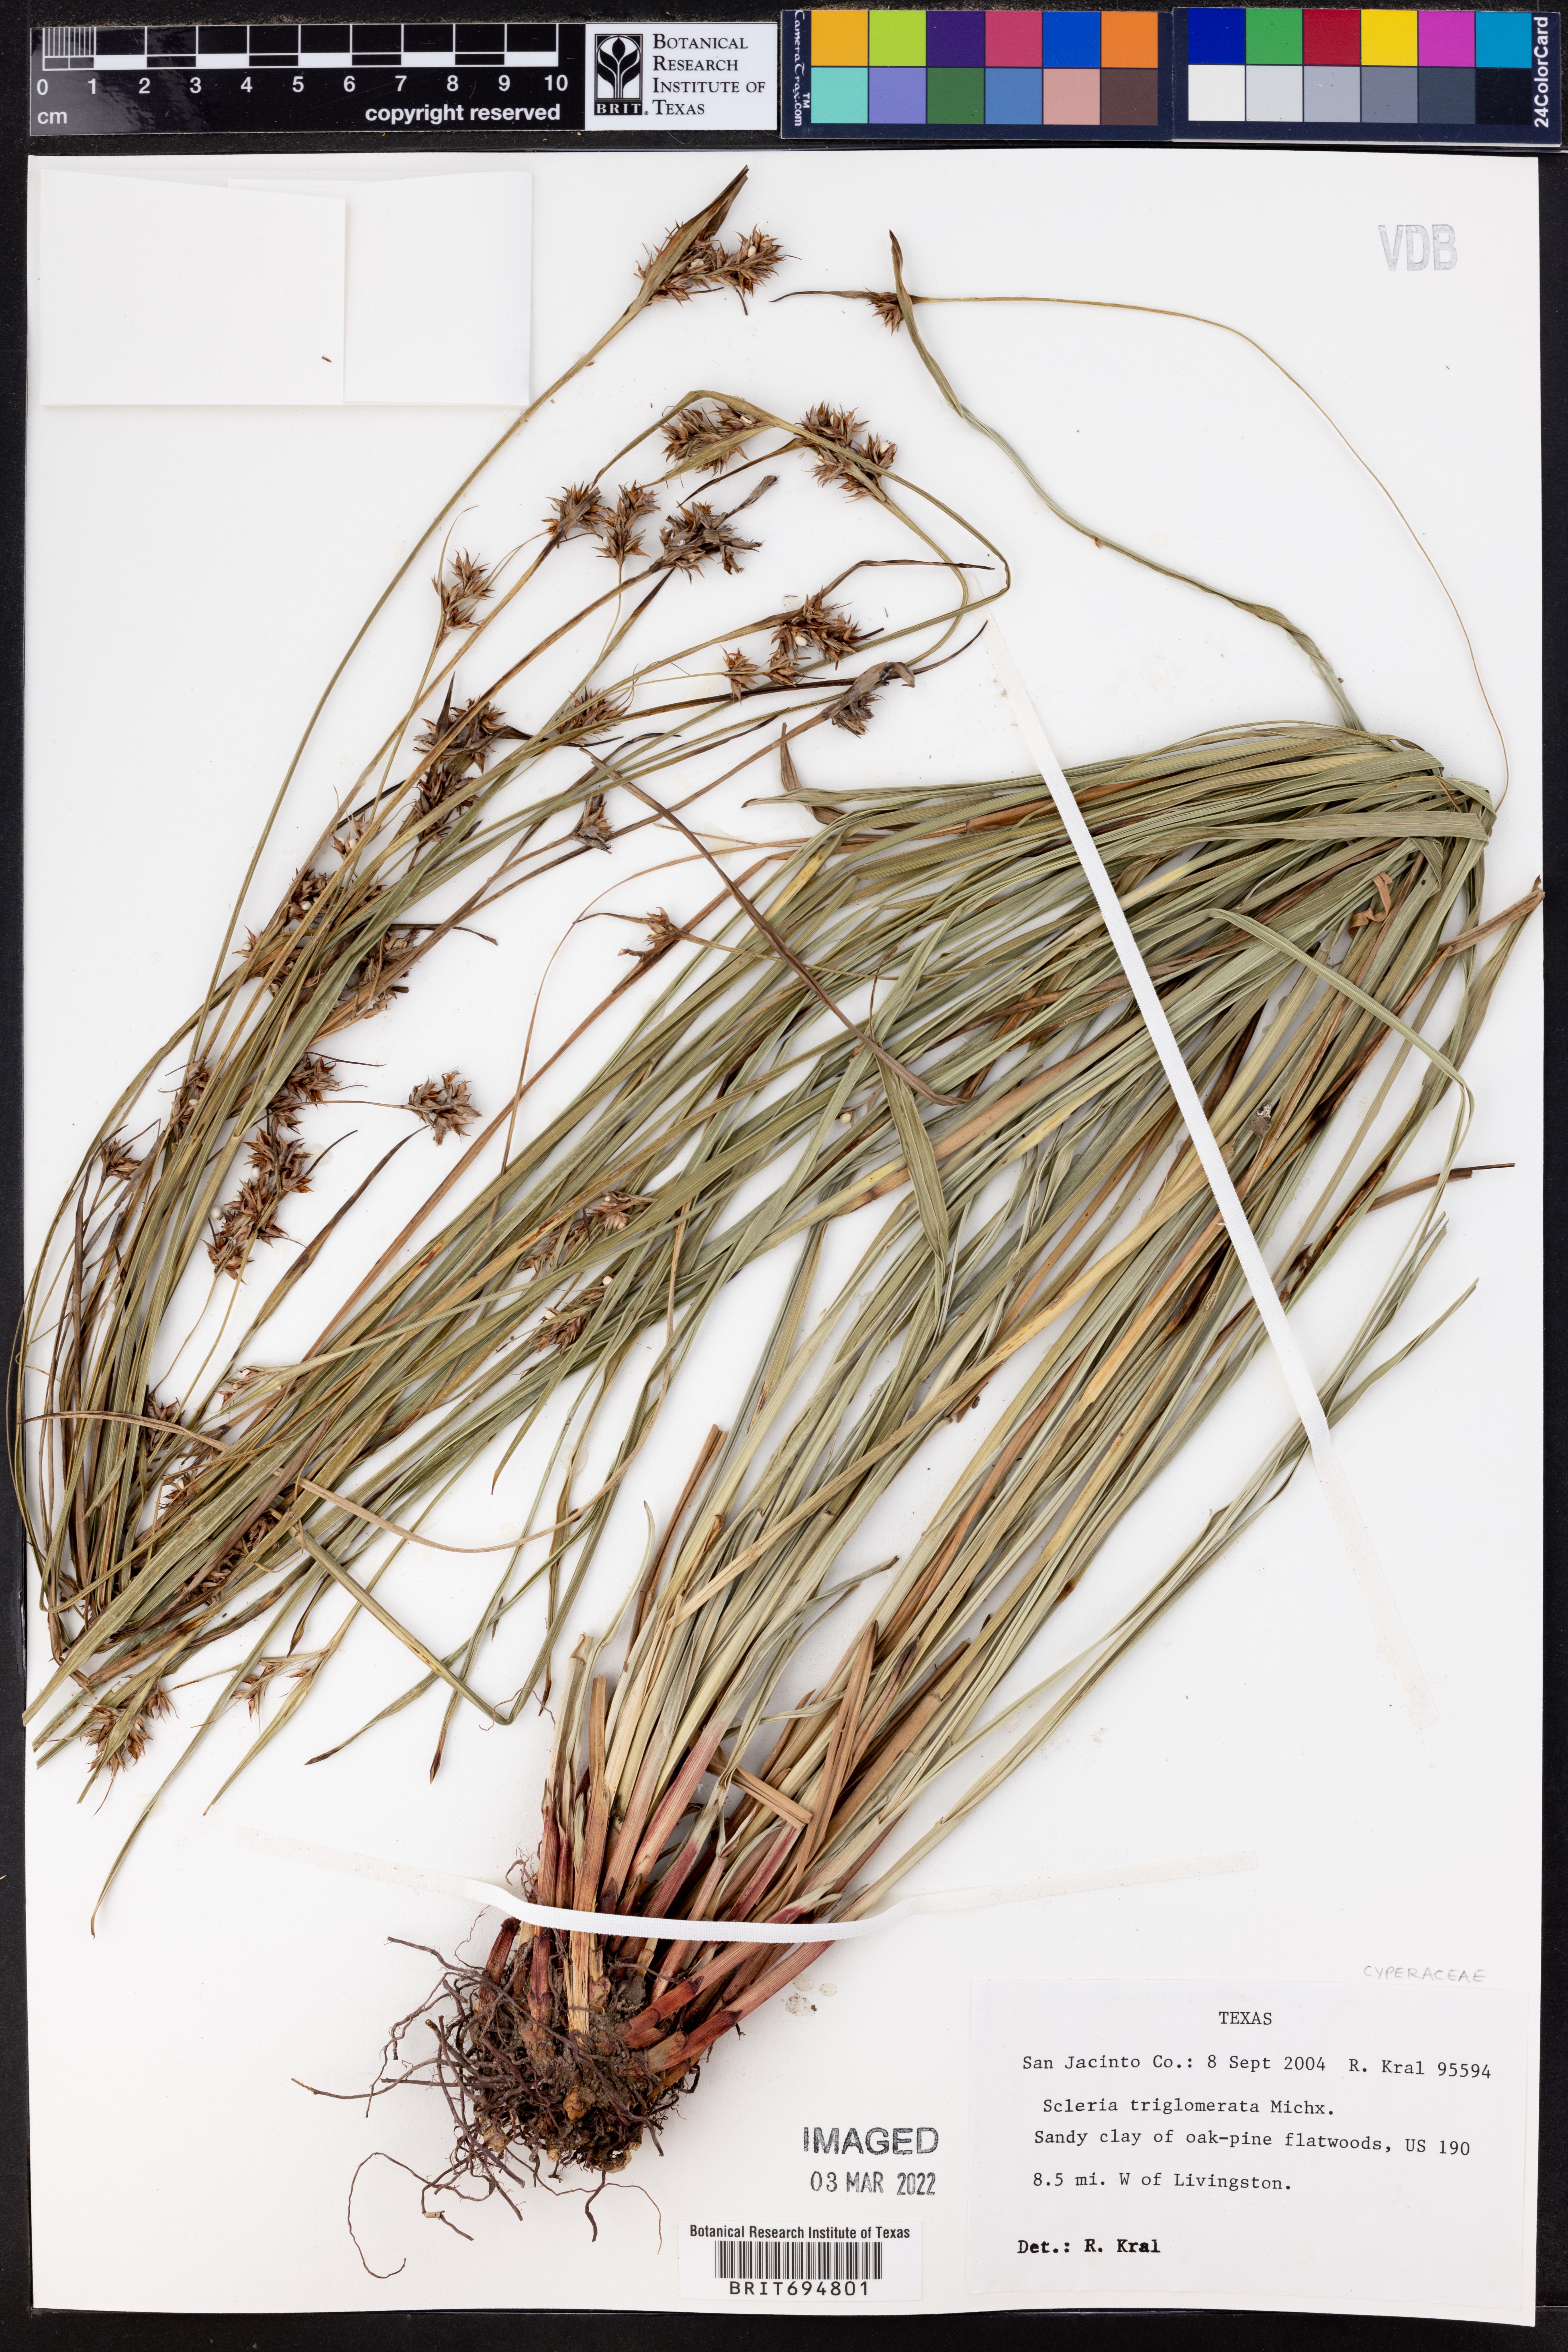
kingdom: Plantae
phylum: Tracheophyta
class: Liliopsida
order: Poales
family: Cyperaceae
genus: Scleria
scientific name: Scleria triglomerata
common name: Whip nutrush
